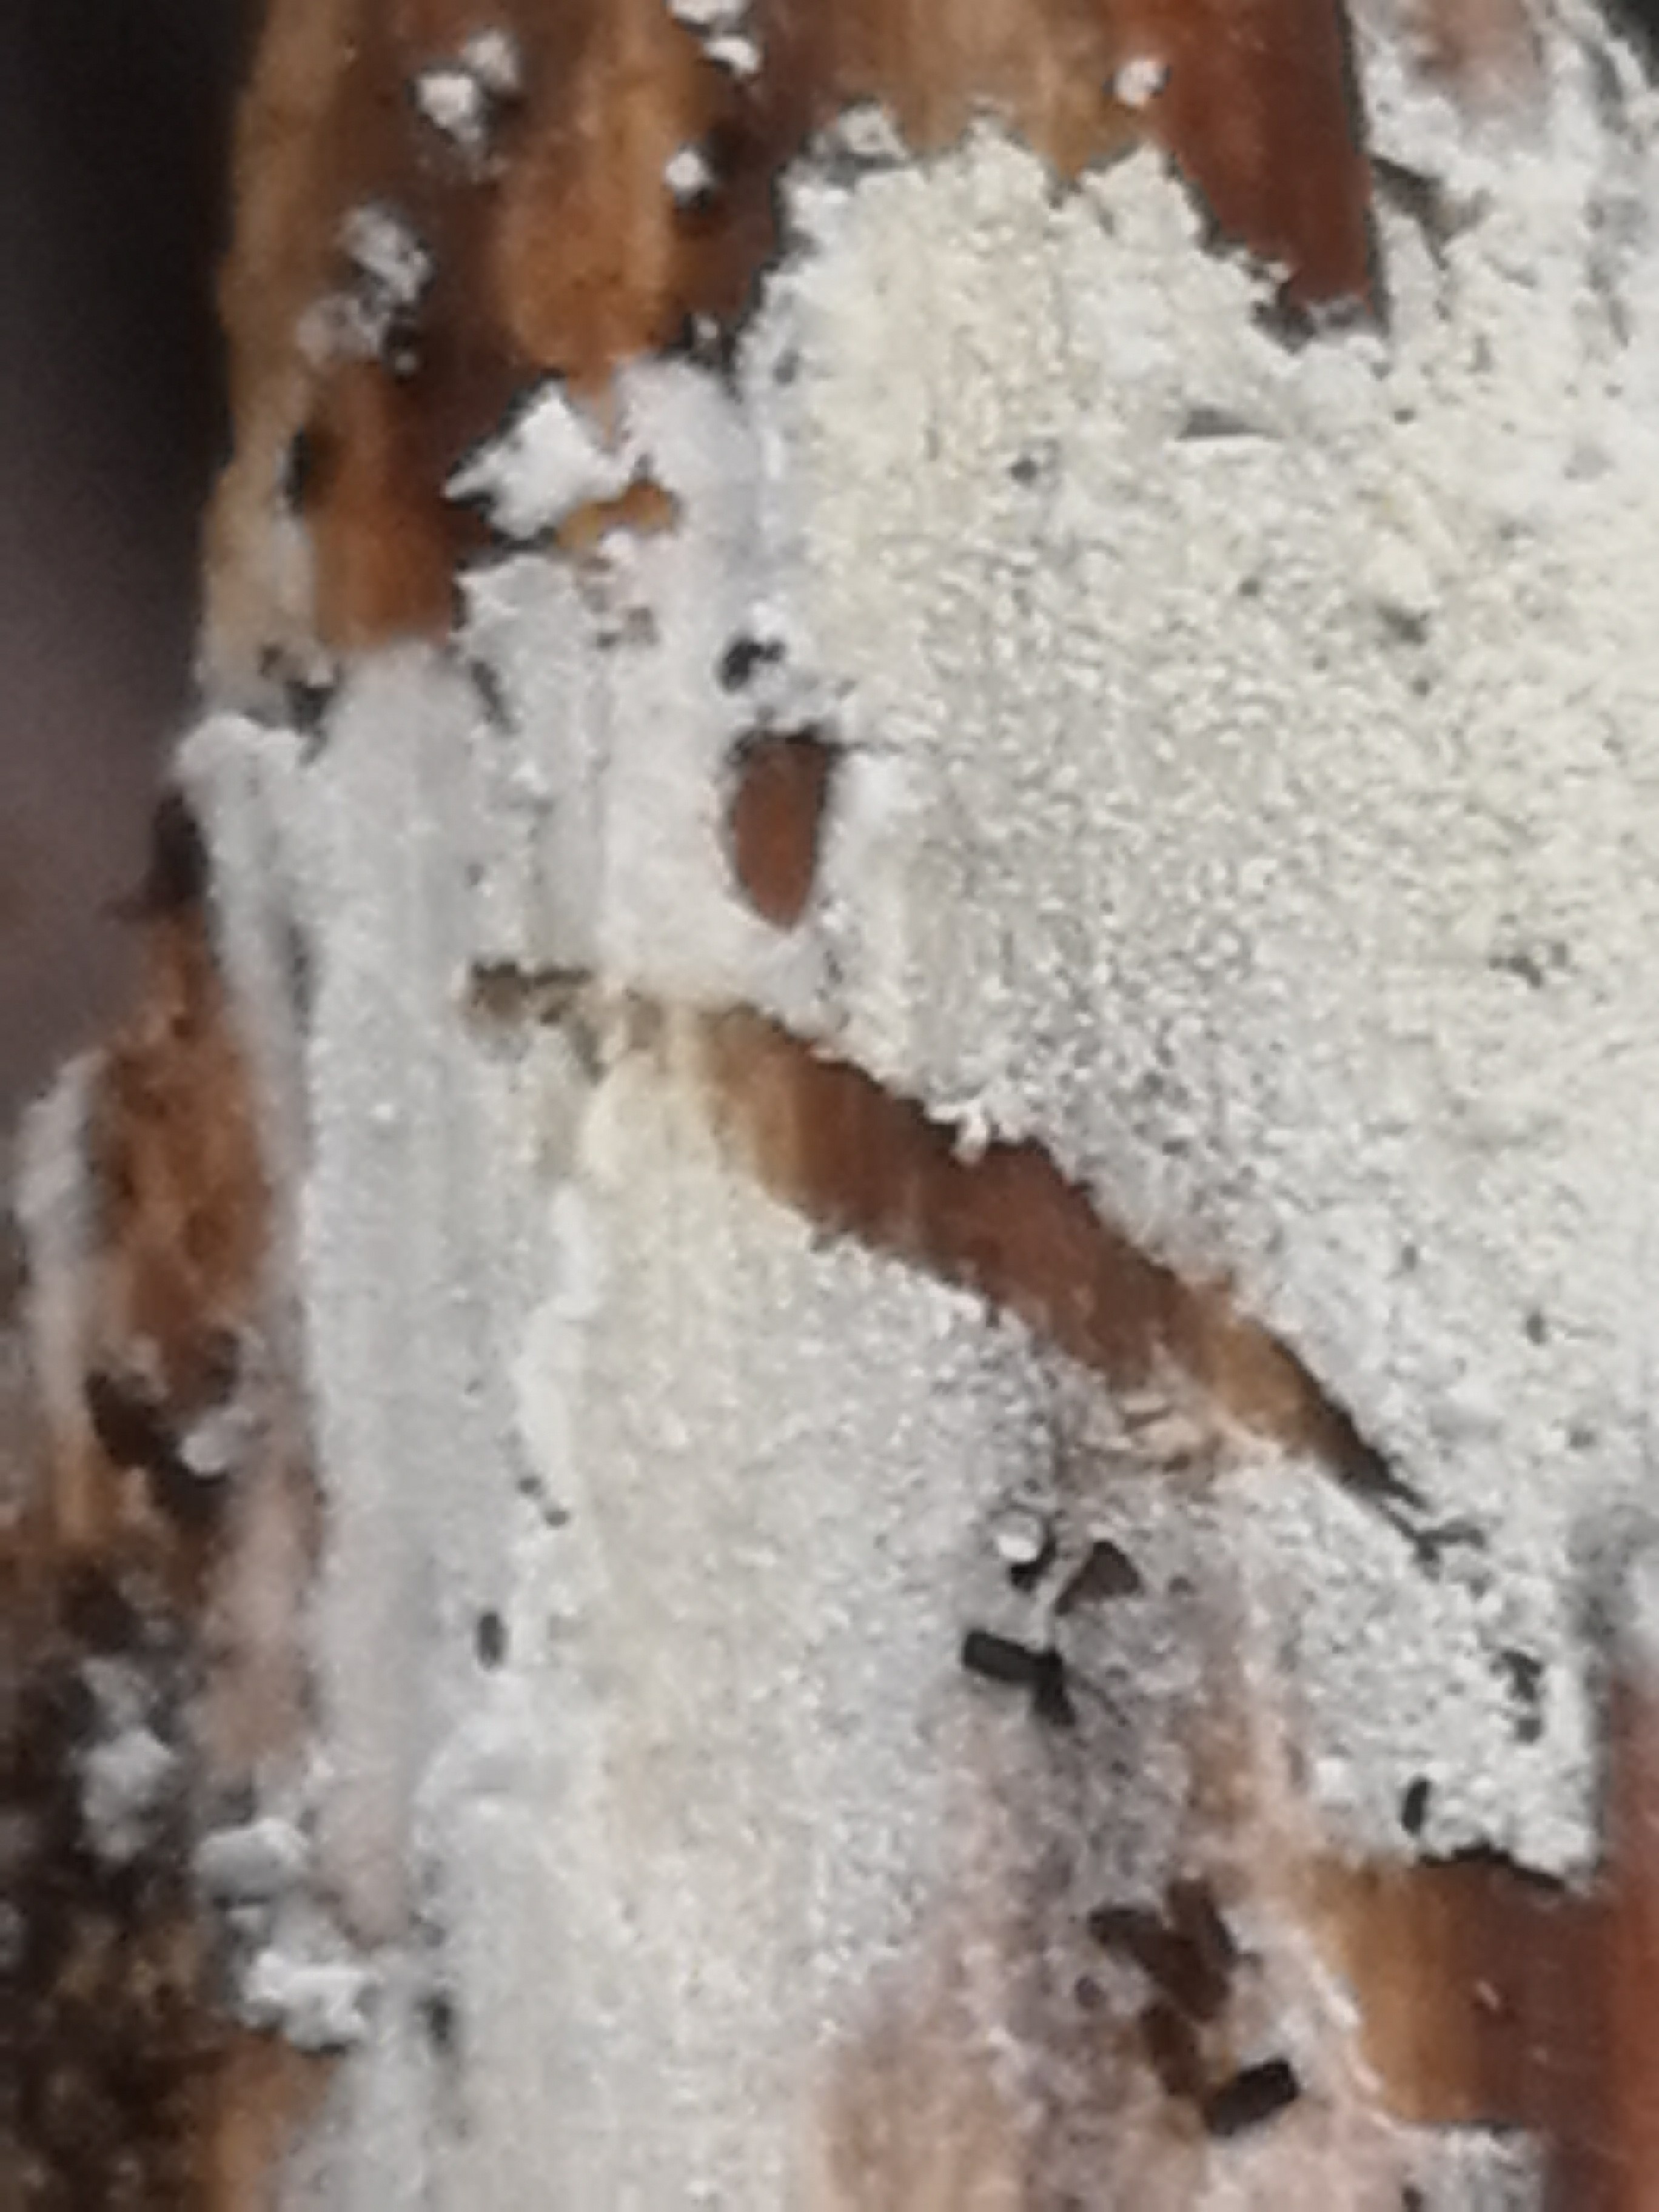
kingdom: Fungi
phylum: Basidiomycota
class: Agaricomycetes
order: Corticiales
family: Corticiaceae
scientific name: Corticiaceae
